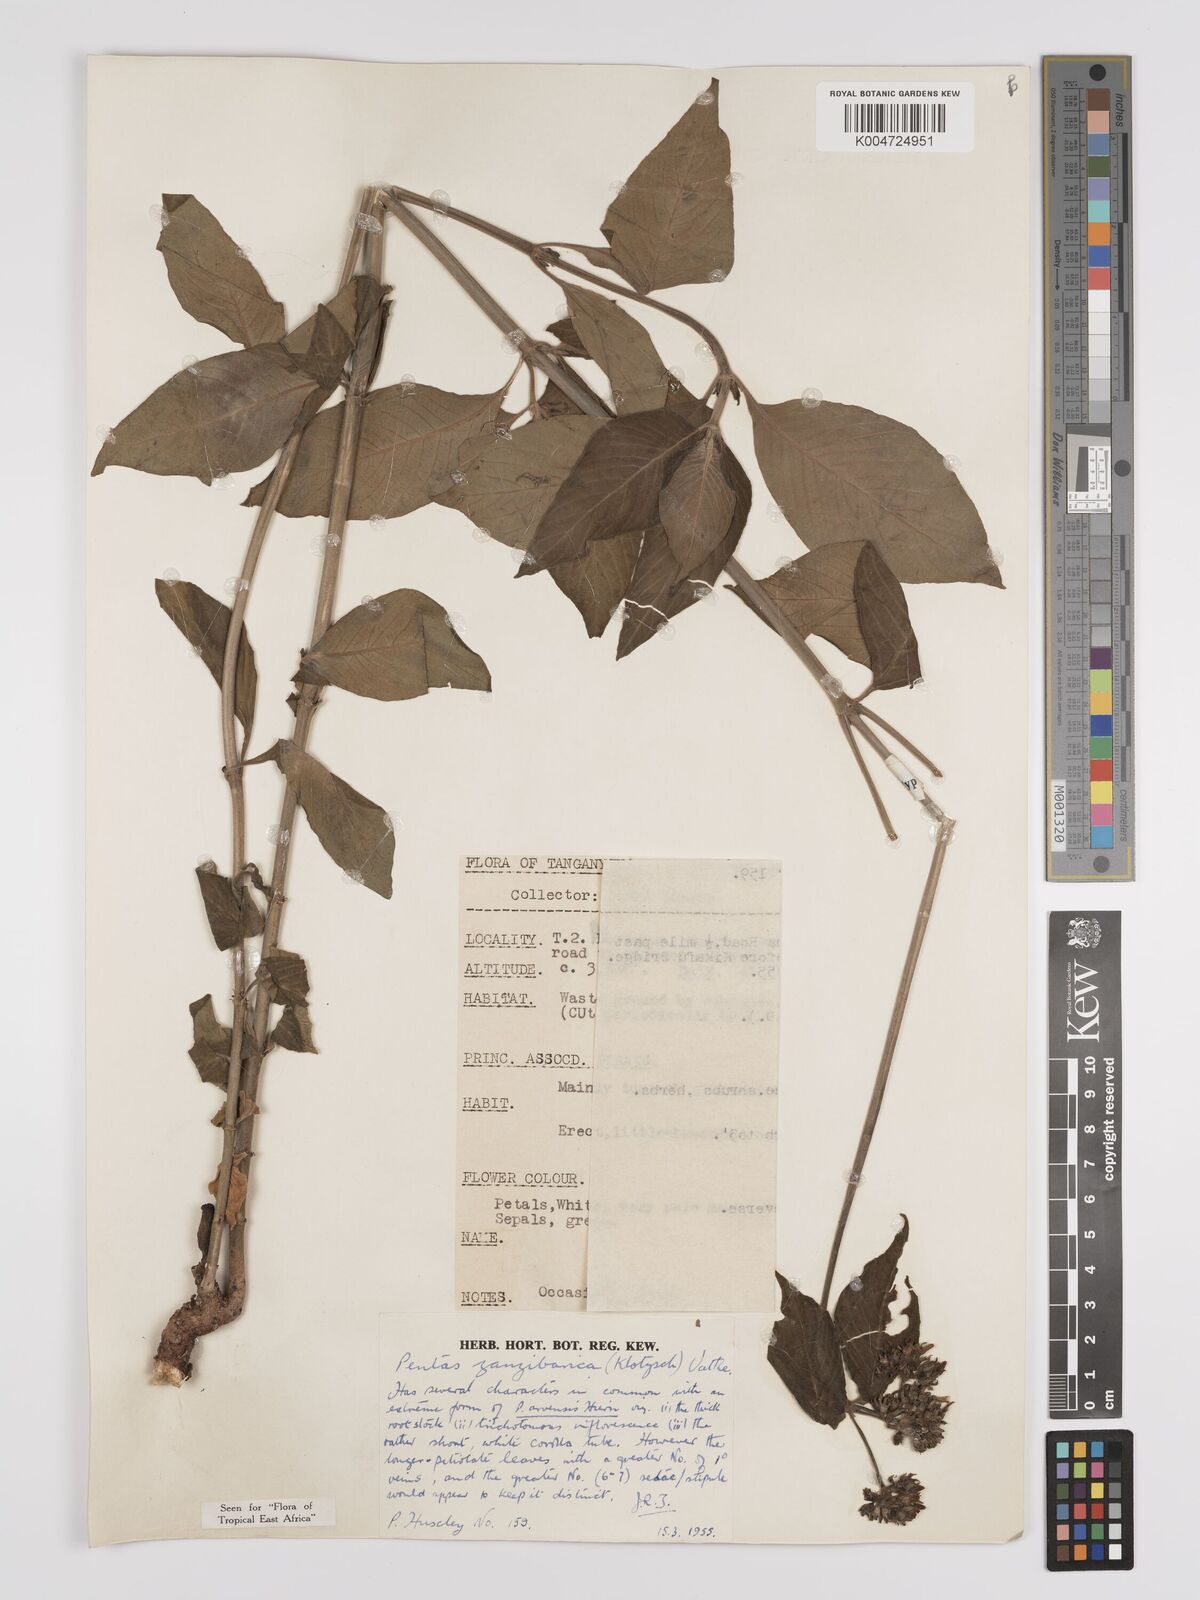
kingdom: Plantae
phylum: Tracheophyta
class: Magnoliopsida
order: Gentianales
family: Rubiaceae
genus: Pentas
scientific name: Pentas zanzibarica
